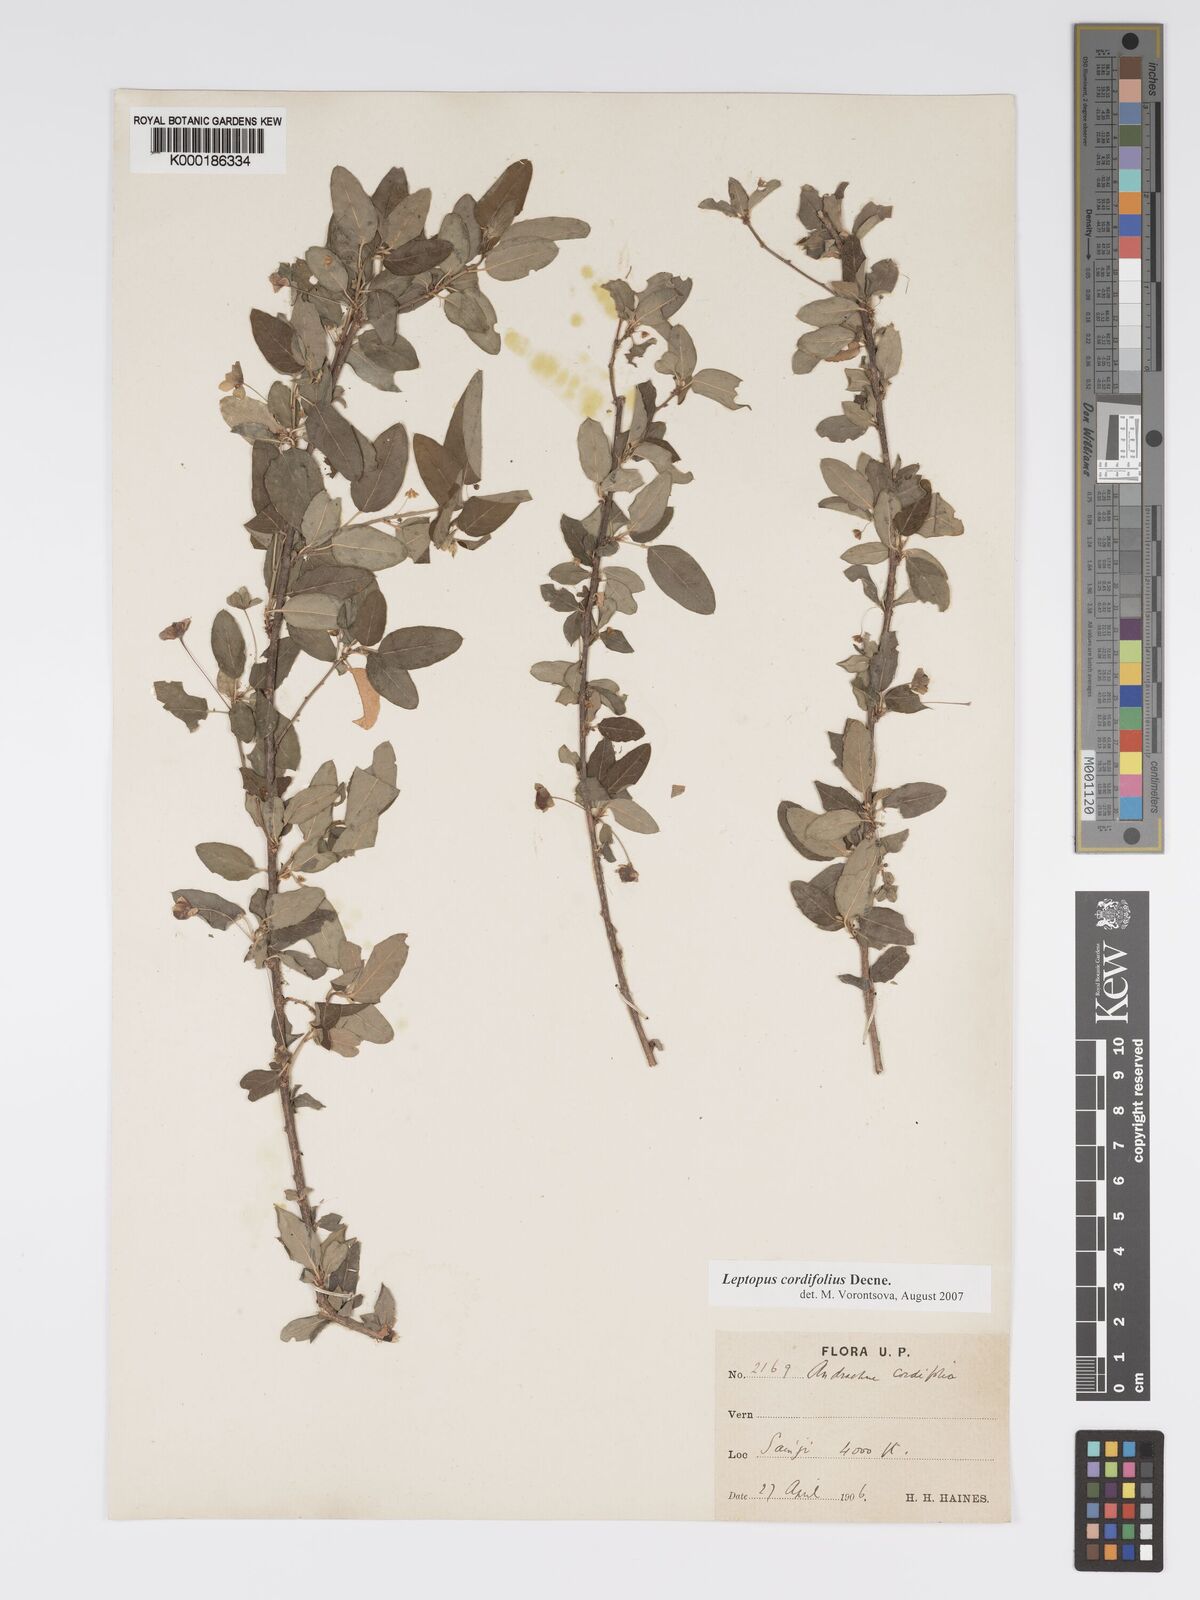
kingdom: Plantae
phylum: Tracheophyta
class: Magnoliopsida
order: Malpighiales
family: Phyllanthaceae
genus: Leptopus
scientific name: Leptopus cordifolius
